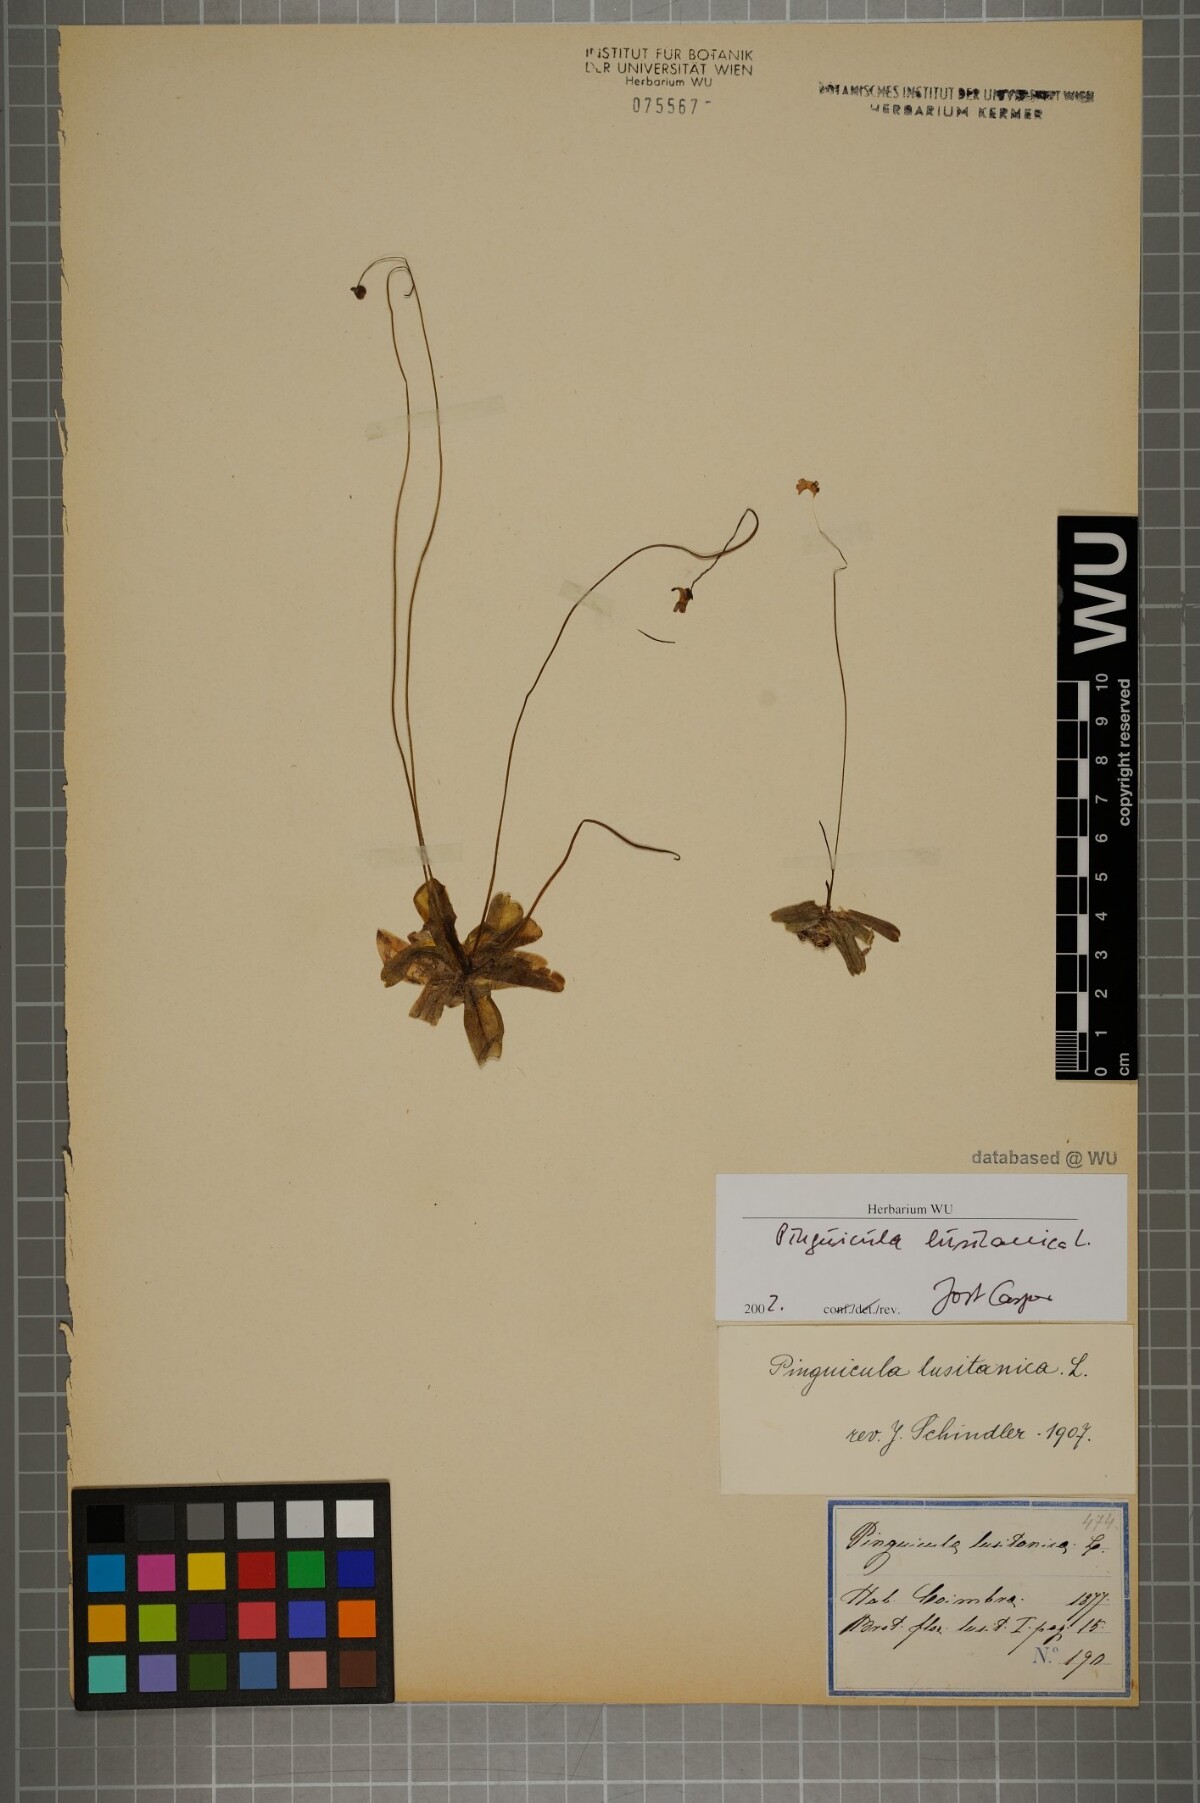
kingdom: Plantae
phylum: Tracheophyta
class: Magnoliopsida
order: Lamiales
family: Lentibulariaceae
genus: Pinguicula
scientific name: Pinguicula lusitanica
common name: Pale butterwort
